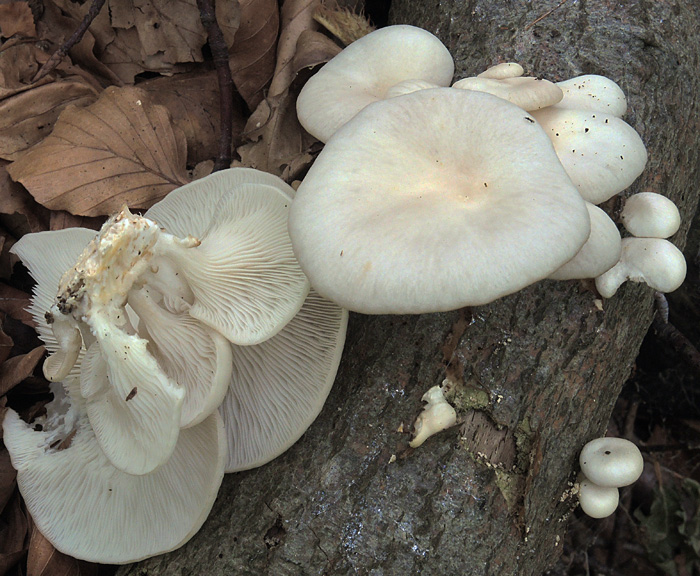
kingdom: Fungi
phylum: Basidiomycota
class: Agaricomycetes
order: Agaricales
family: Pleurotaceae
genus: Pleurotus
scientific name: Pleurotus pulmonarius
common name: sommer-østershat
